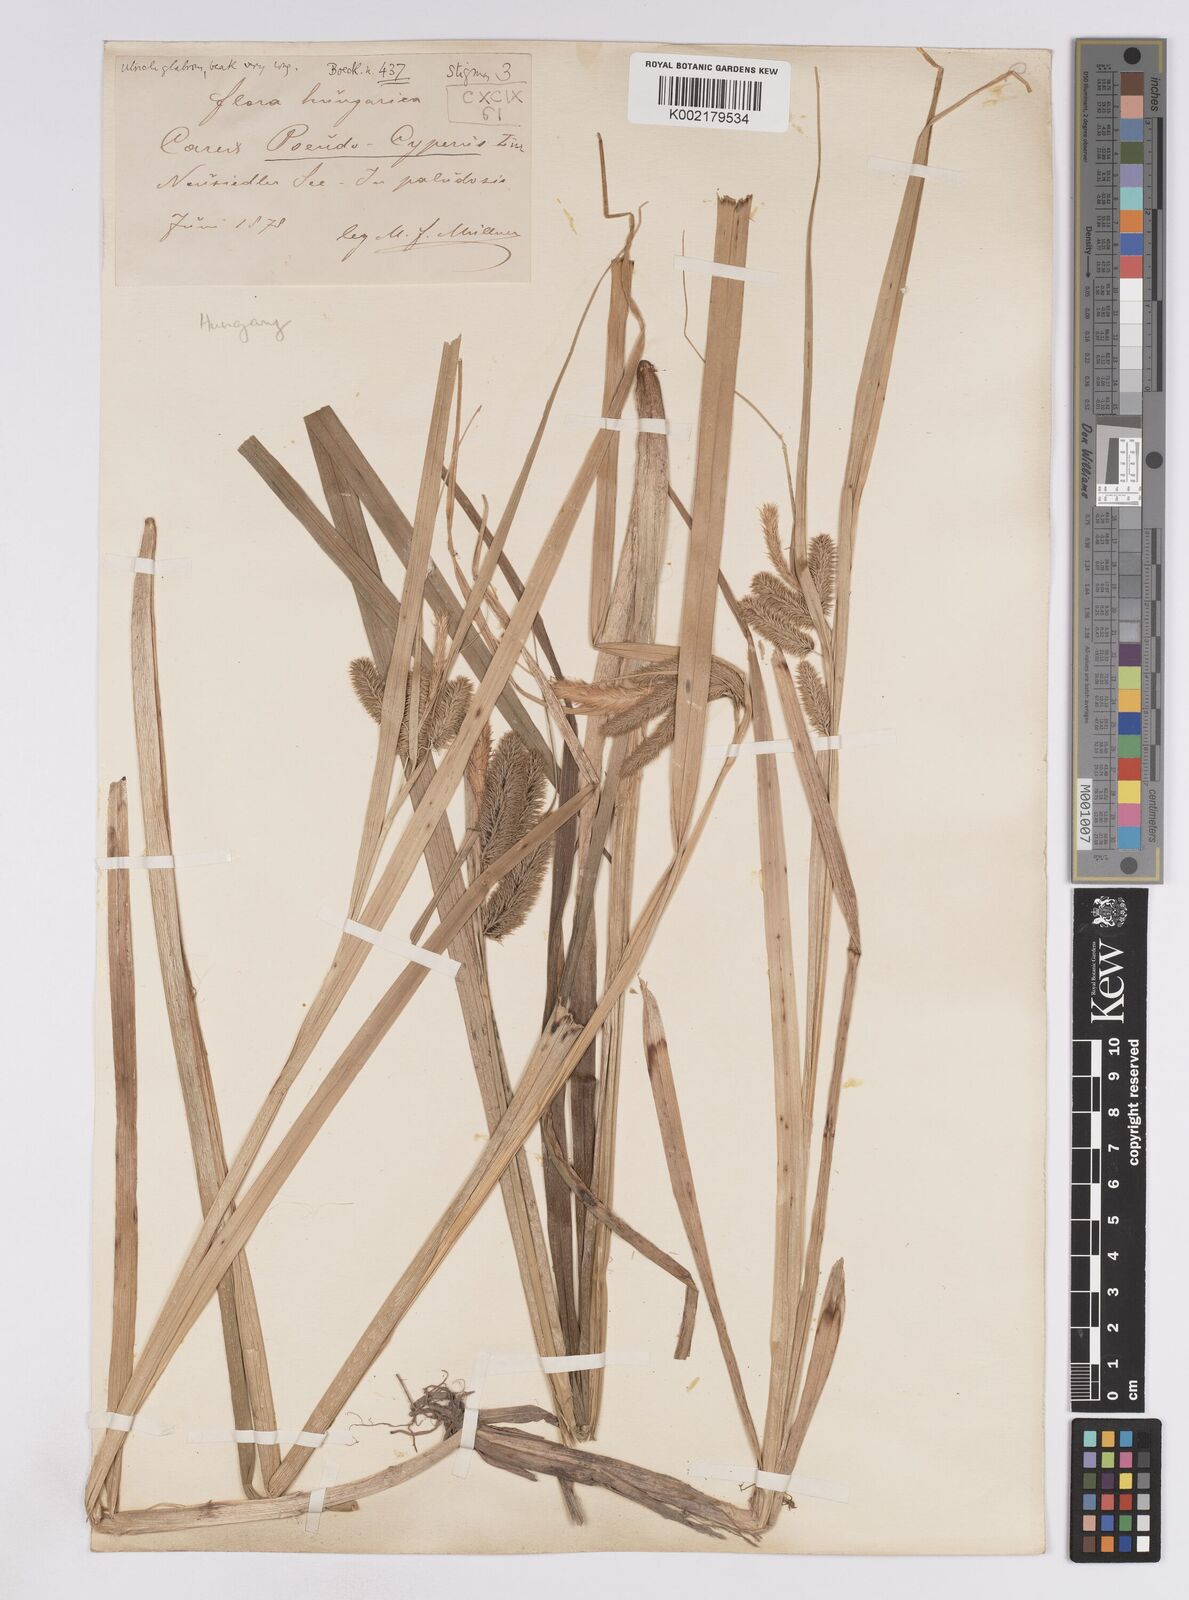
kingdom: Plantae
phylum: Tracheophyta
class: Liliopsida
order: Poales
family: Cyperaceae
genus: Carex
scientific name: Carex pseudocyperus
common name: Cyperus sedge
